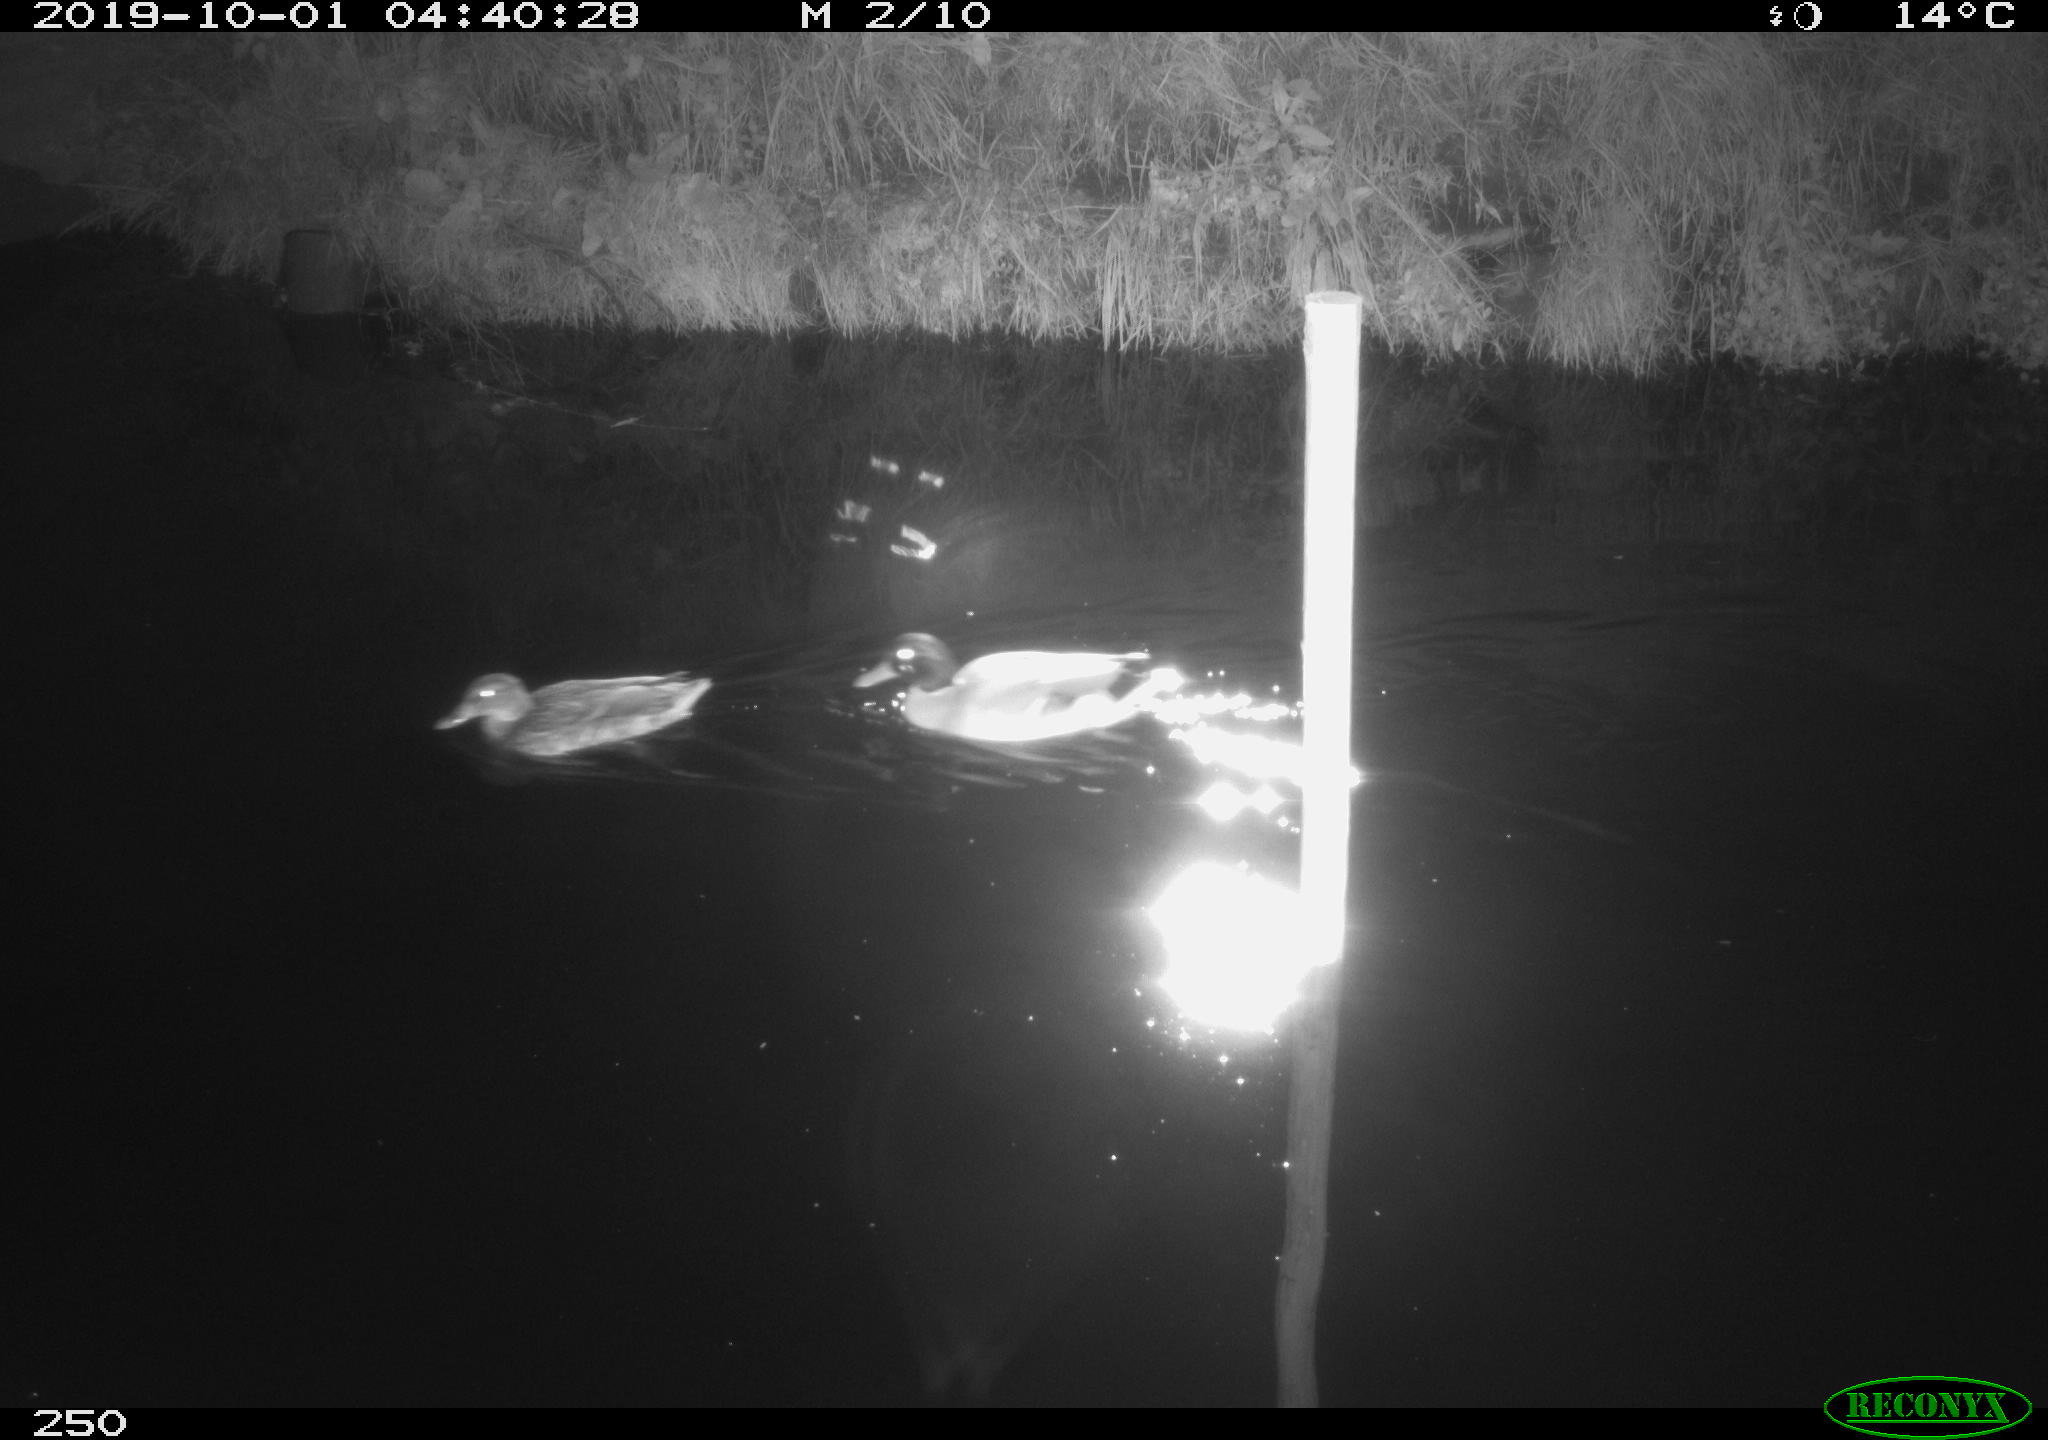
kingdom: Animalia
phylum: Chordata
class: Aves
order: Anseriformes
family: Anatidae
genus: Anas
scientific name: Anas platyrhynchos
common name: Mallard
